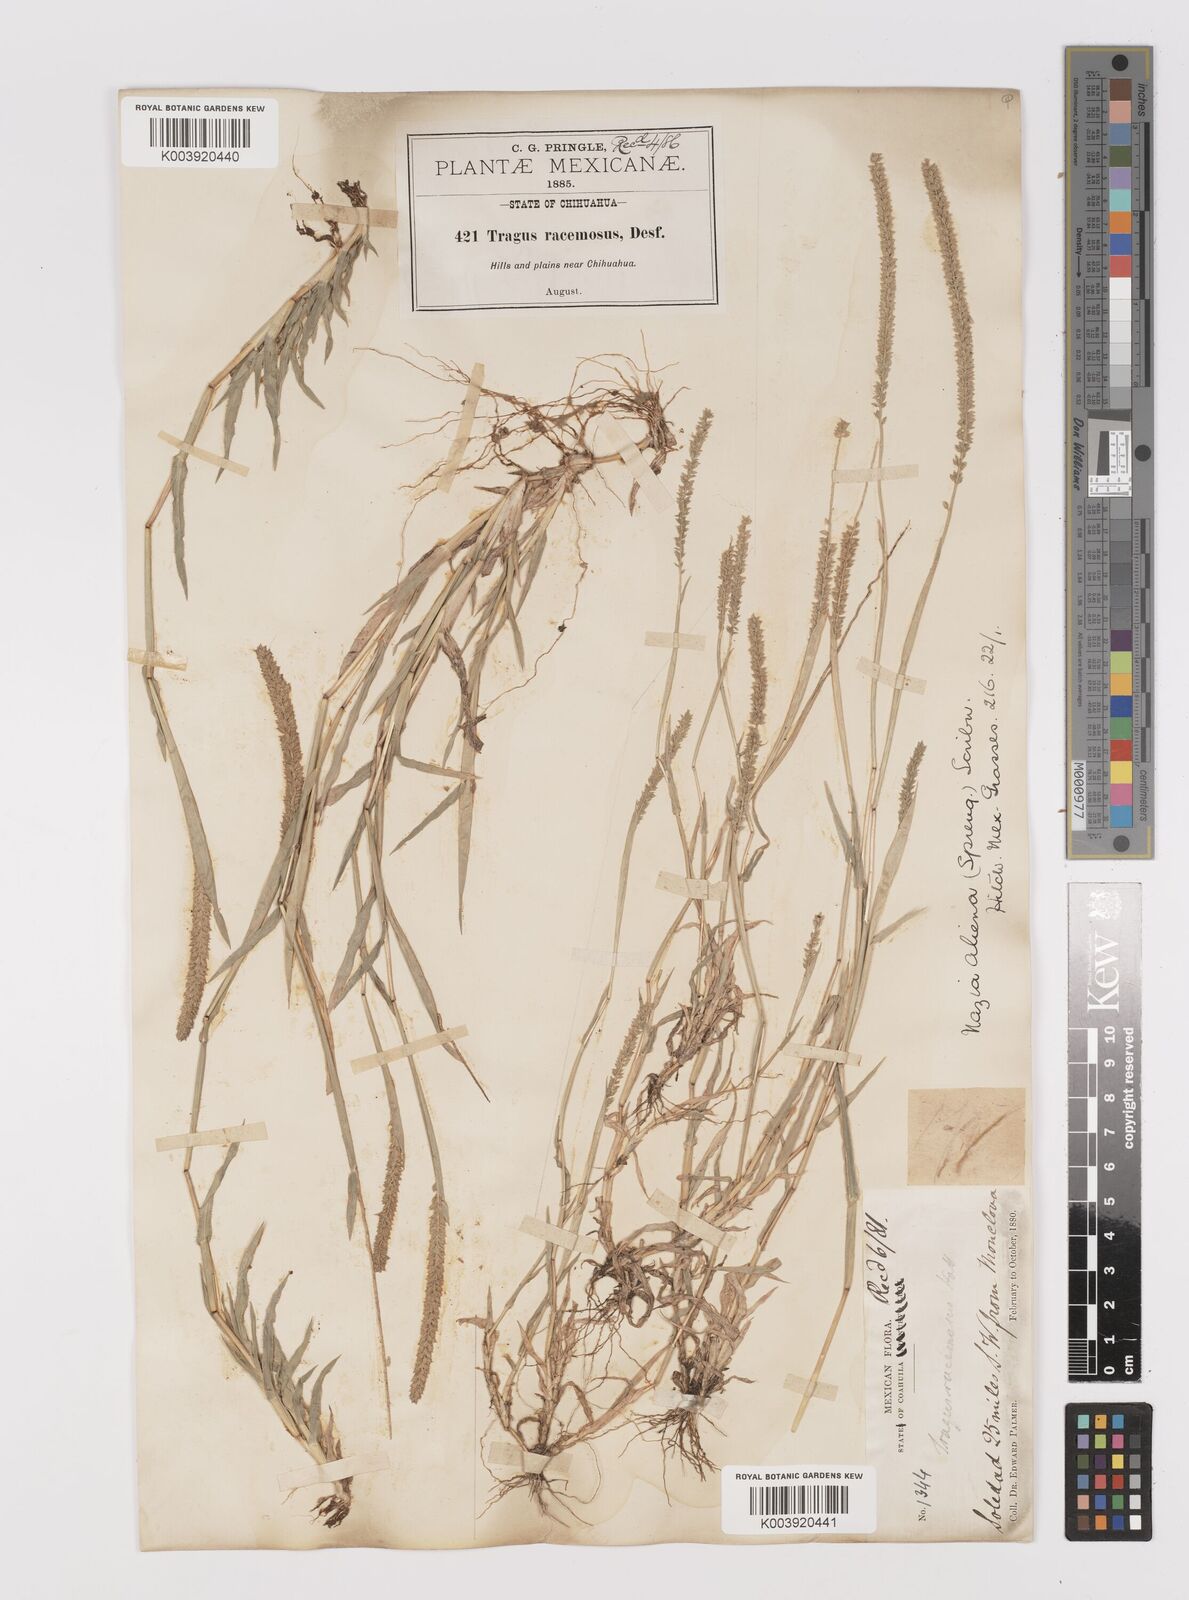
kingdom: Plantae
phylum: Tracheophyta
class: Liliopsida
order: Poales
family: Poaceae
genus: Tragus
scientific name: Tragus berteronianus
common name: African bur-grass
